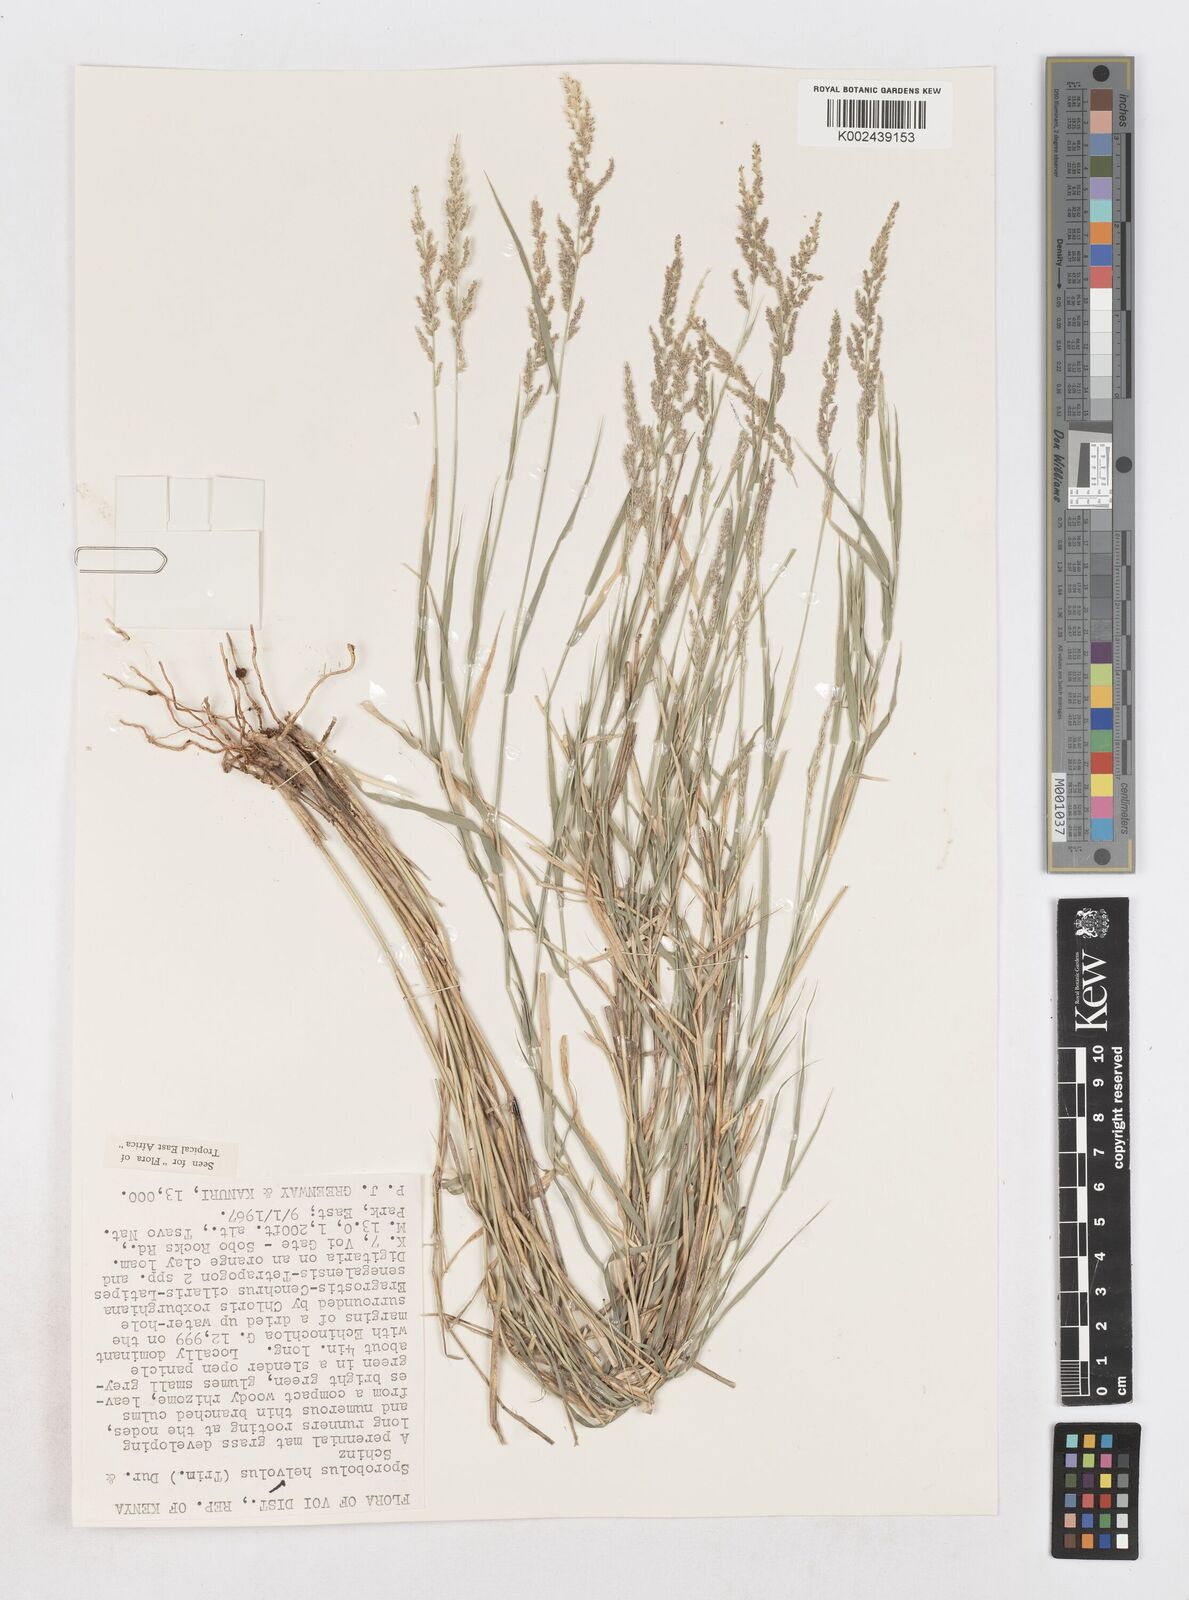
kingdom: Plantae
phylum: Tracheophyta
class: Liliopsida
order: Poales
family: Poaceae
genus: Sporobolus
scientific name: Sporobolus helvolus
